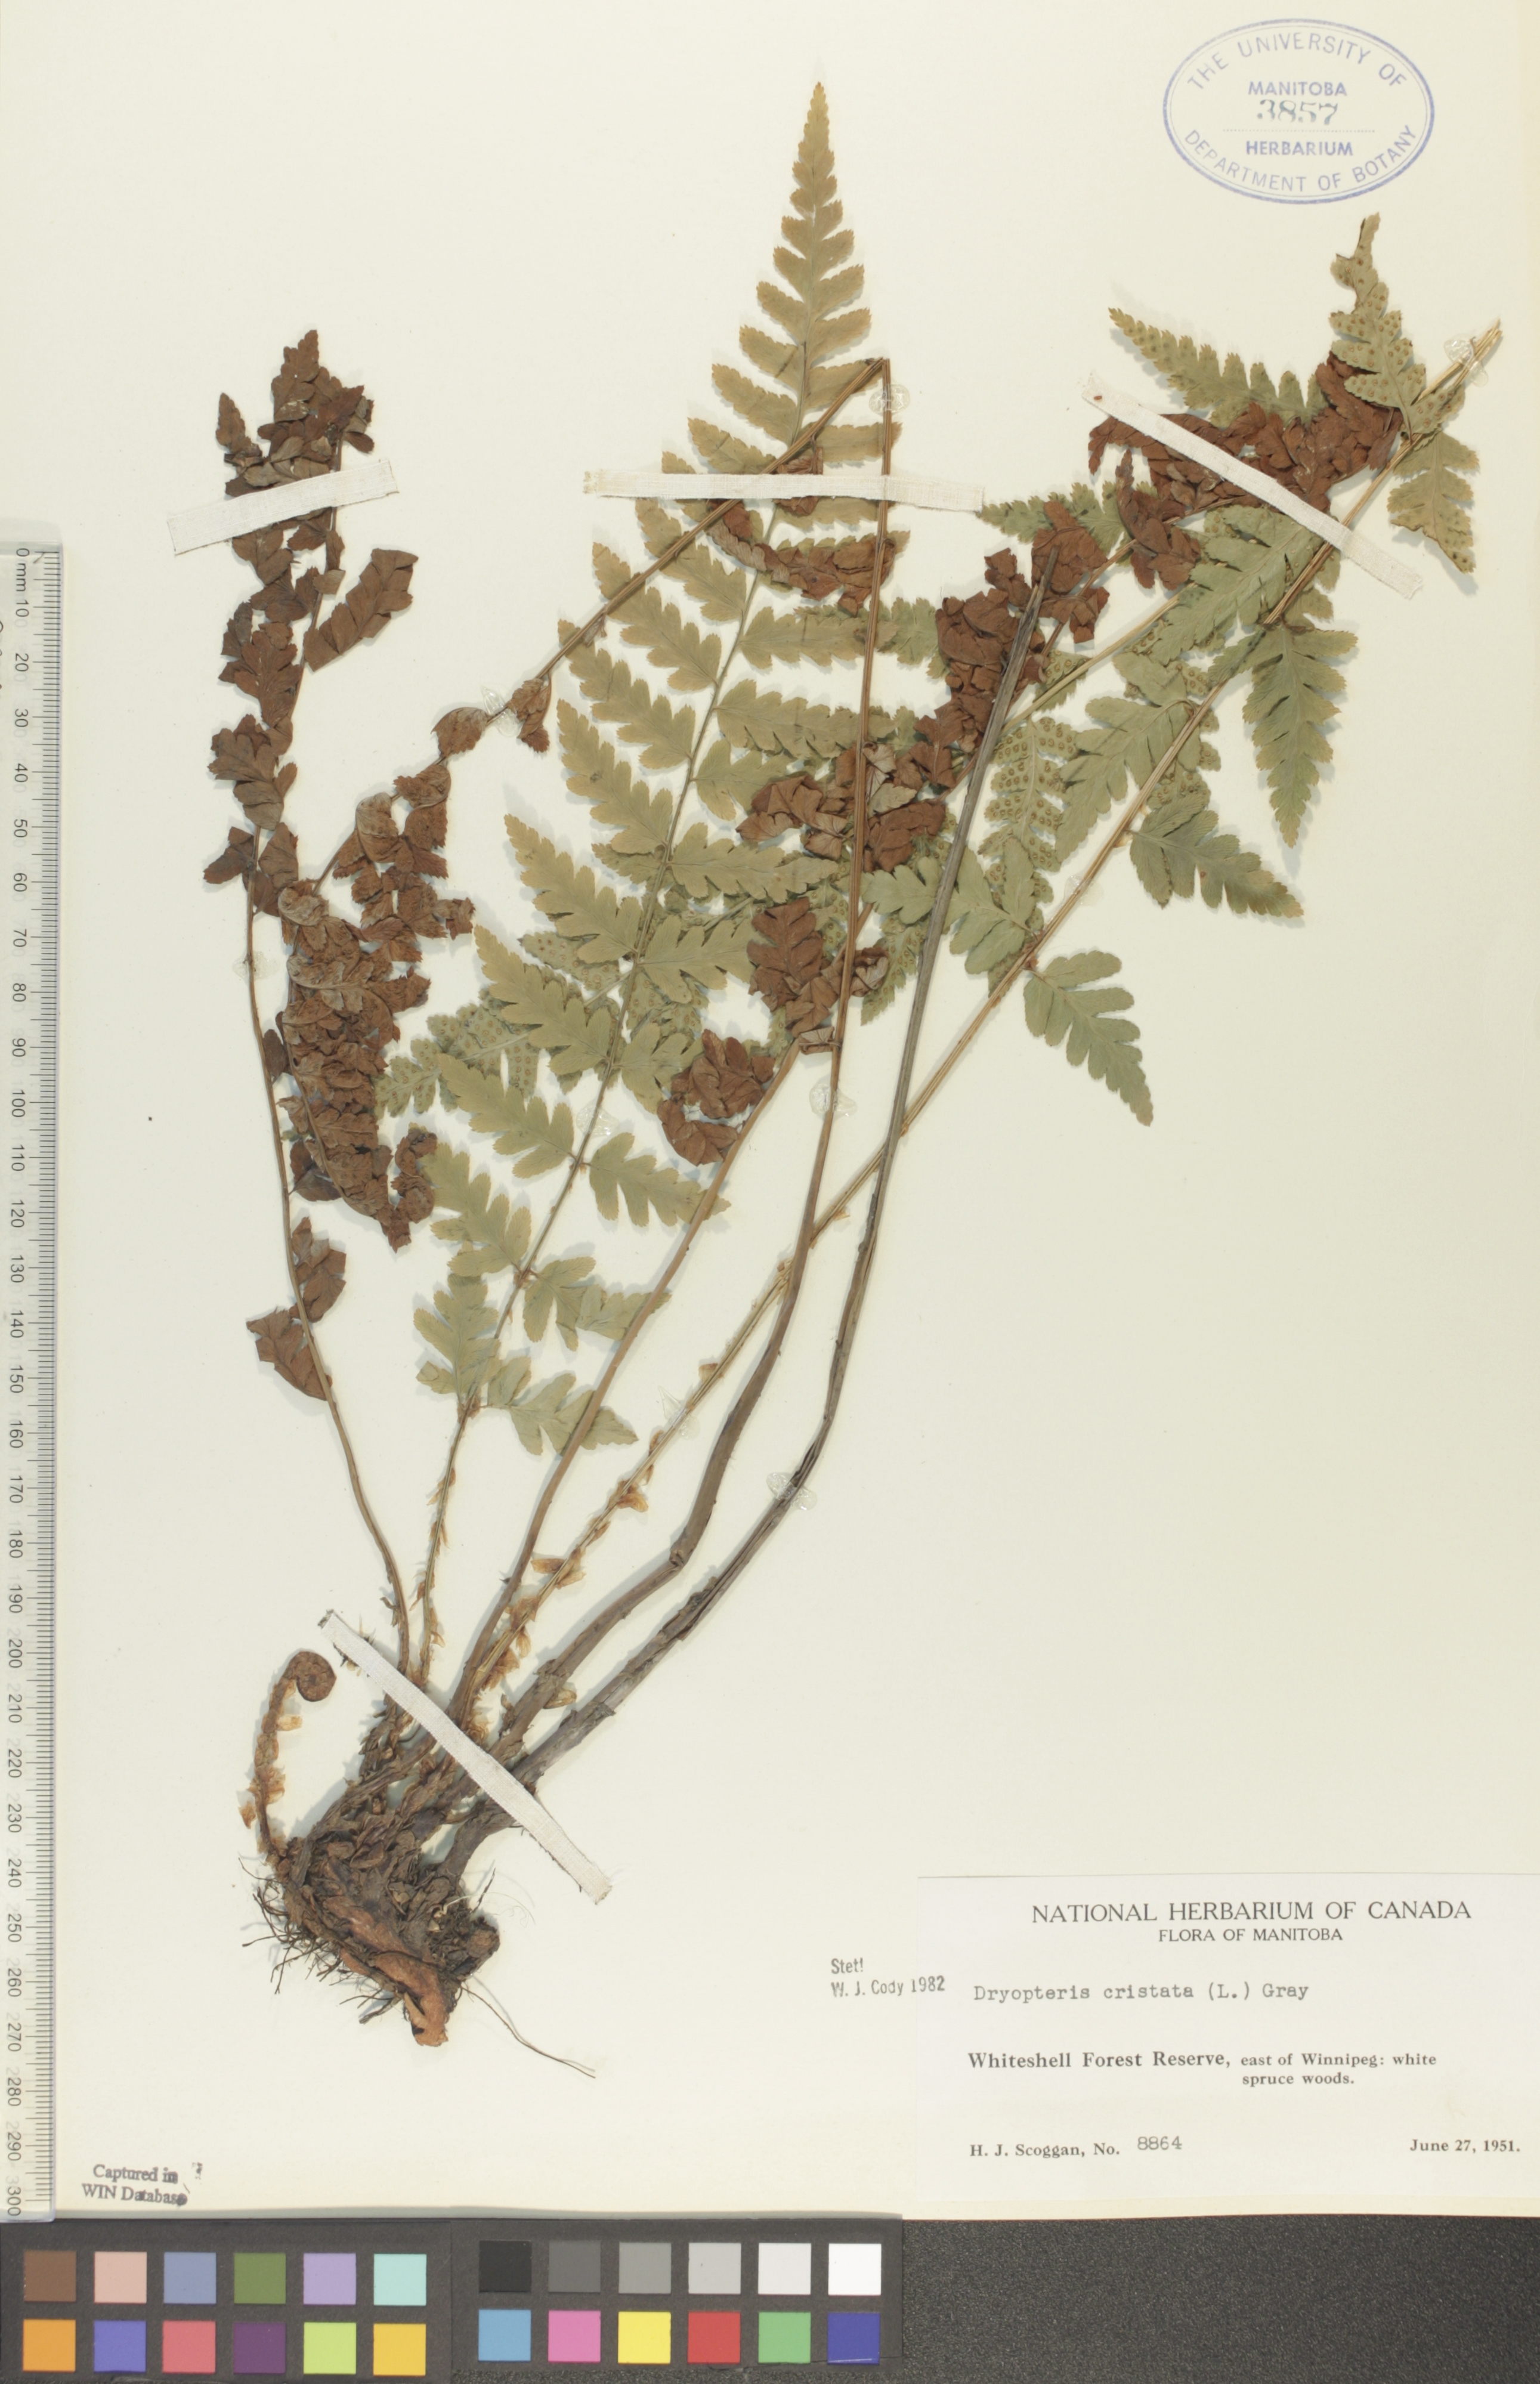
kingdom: Plantae
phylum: Tracheophyta
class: Polypodiopsida
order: Polypodiales
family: Dryopteridaceae
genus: Dryopteris
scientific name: Dryopteris cristata
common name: Crested wood fern
